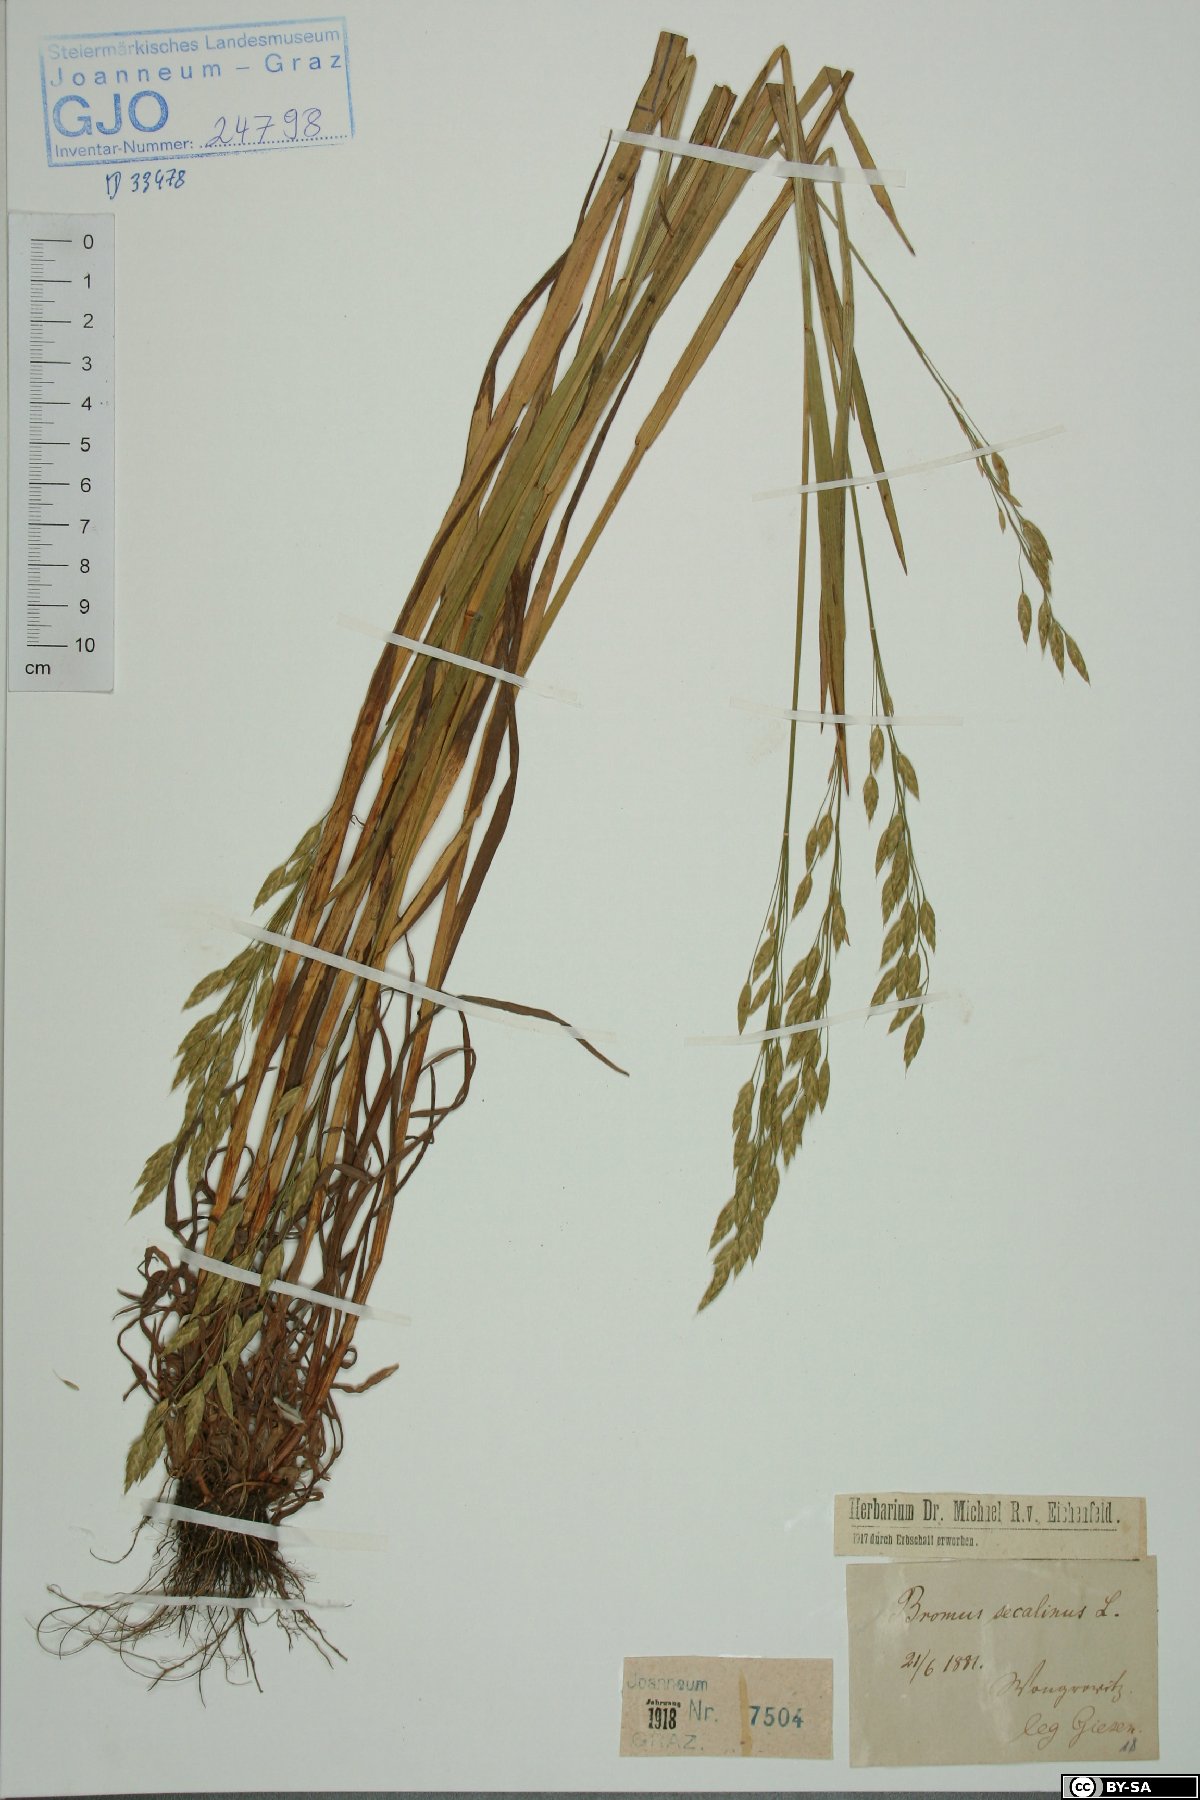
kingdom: Plantae
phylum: Tracheophyta
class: Liliopsida
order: Poales
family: Poaceae
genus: Bromus
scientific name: Bromus secalinus
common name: Rye brome
